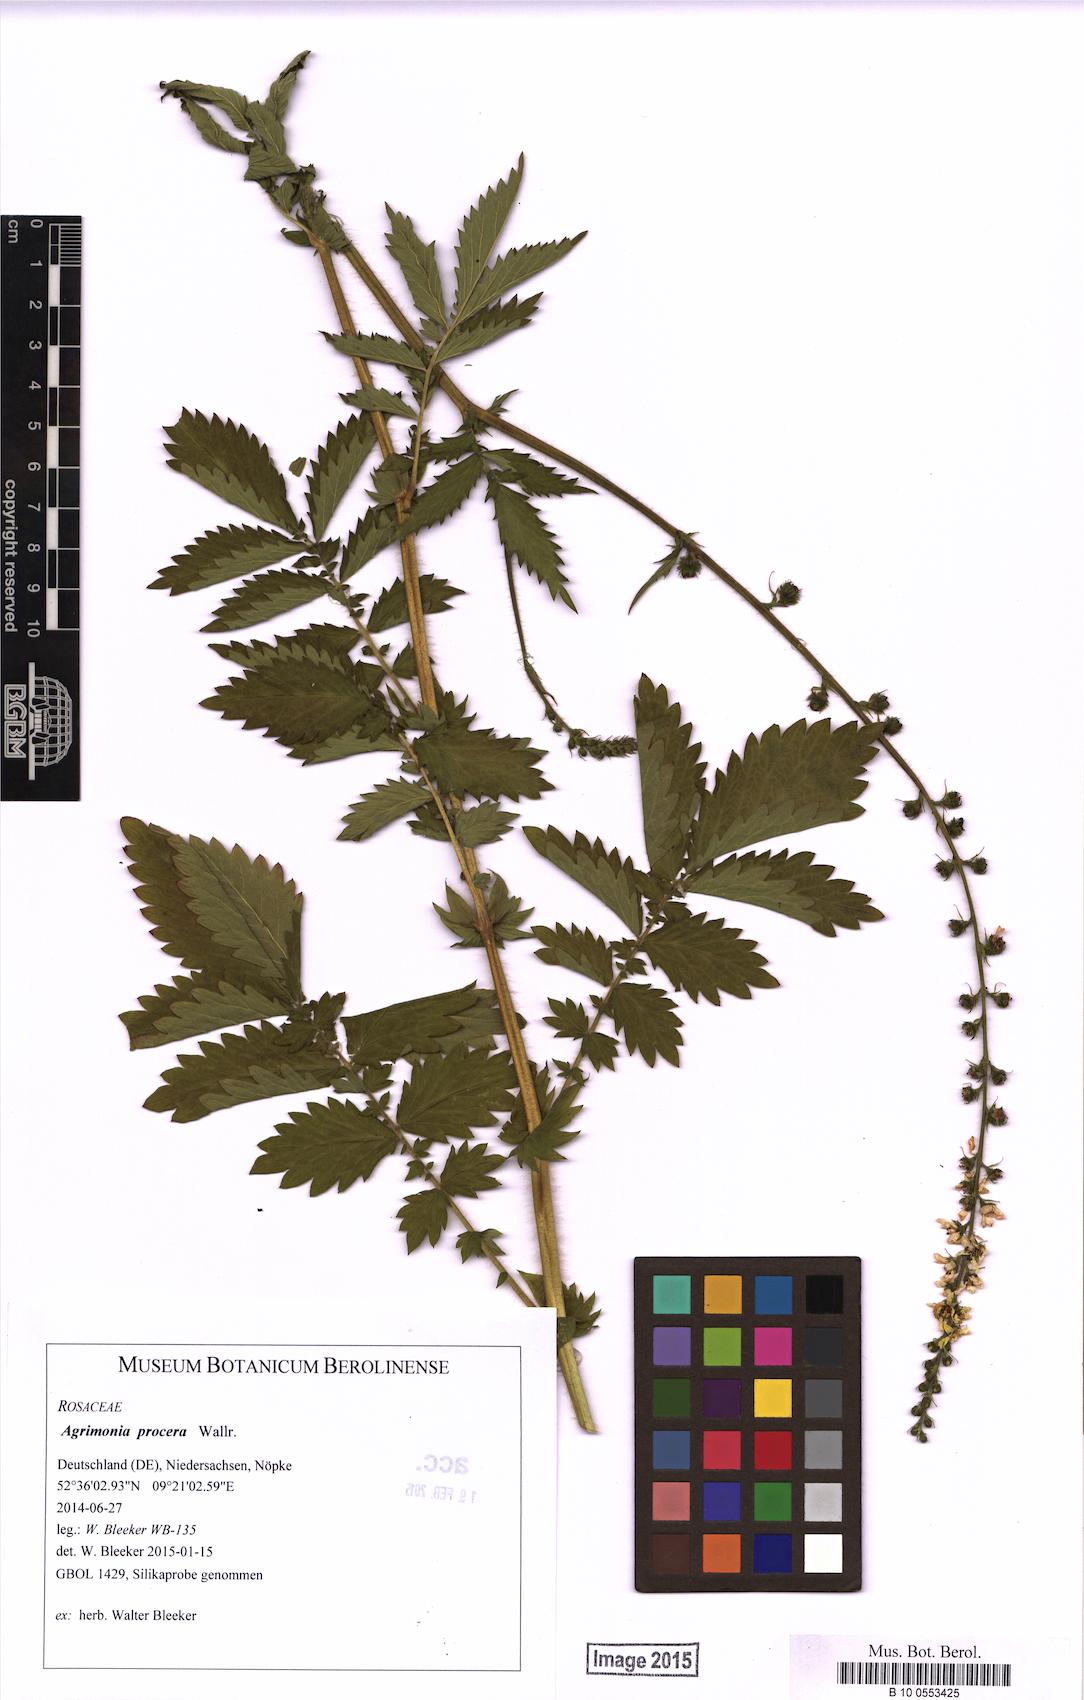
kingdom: Plantae
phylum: Tracheophyta
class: Magnoliopsida
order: Rosales
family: Rosaceae
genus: Agrimonia
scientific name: Agrimonia procera
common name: Fragrant agrimony
